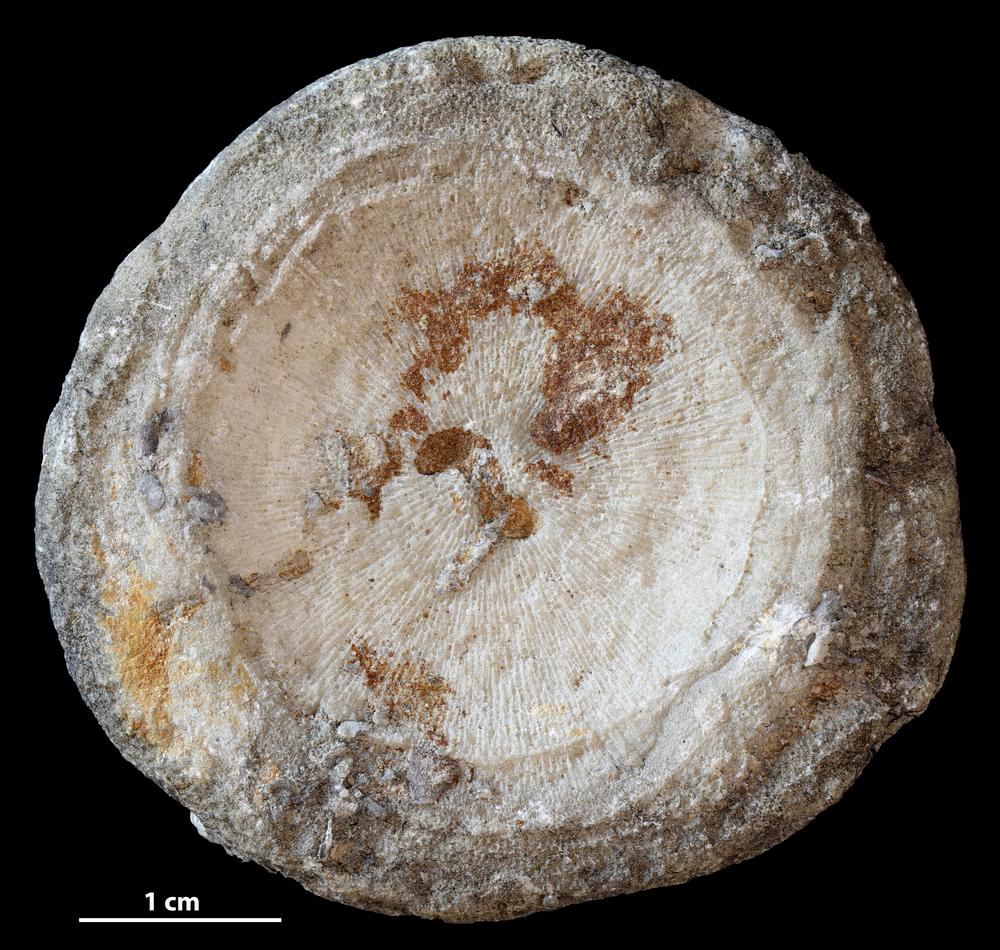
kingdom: Animalia
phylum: Bryozoa
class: Stenolaemata
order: Trepostomatida
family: Diplotrypidae
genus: Diplotrypa
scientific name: Diplotrypa
